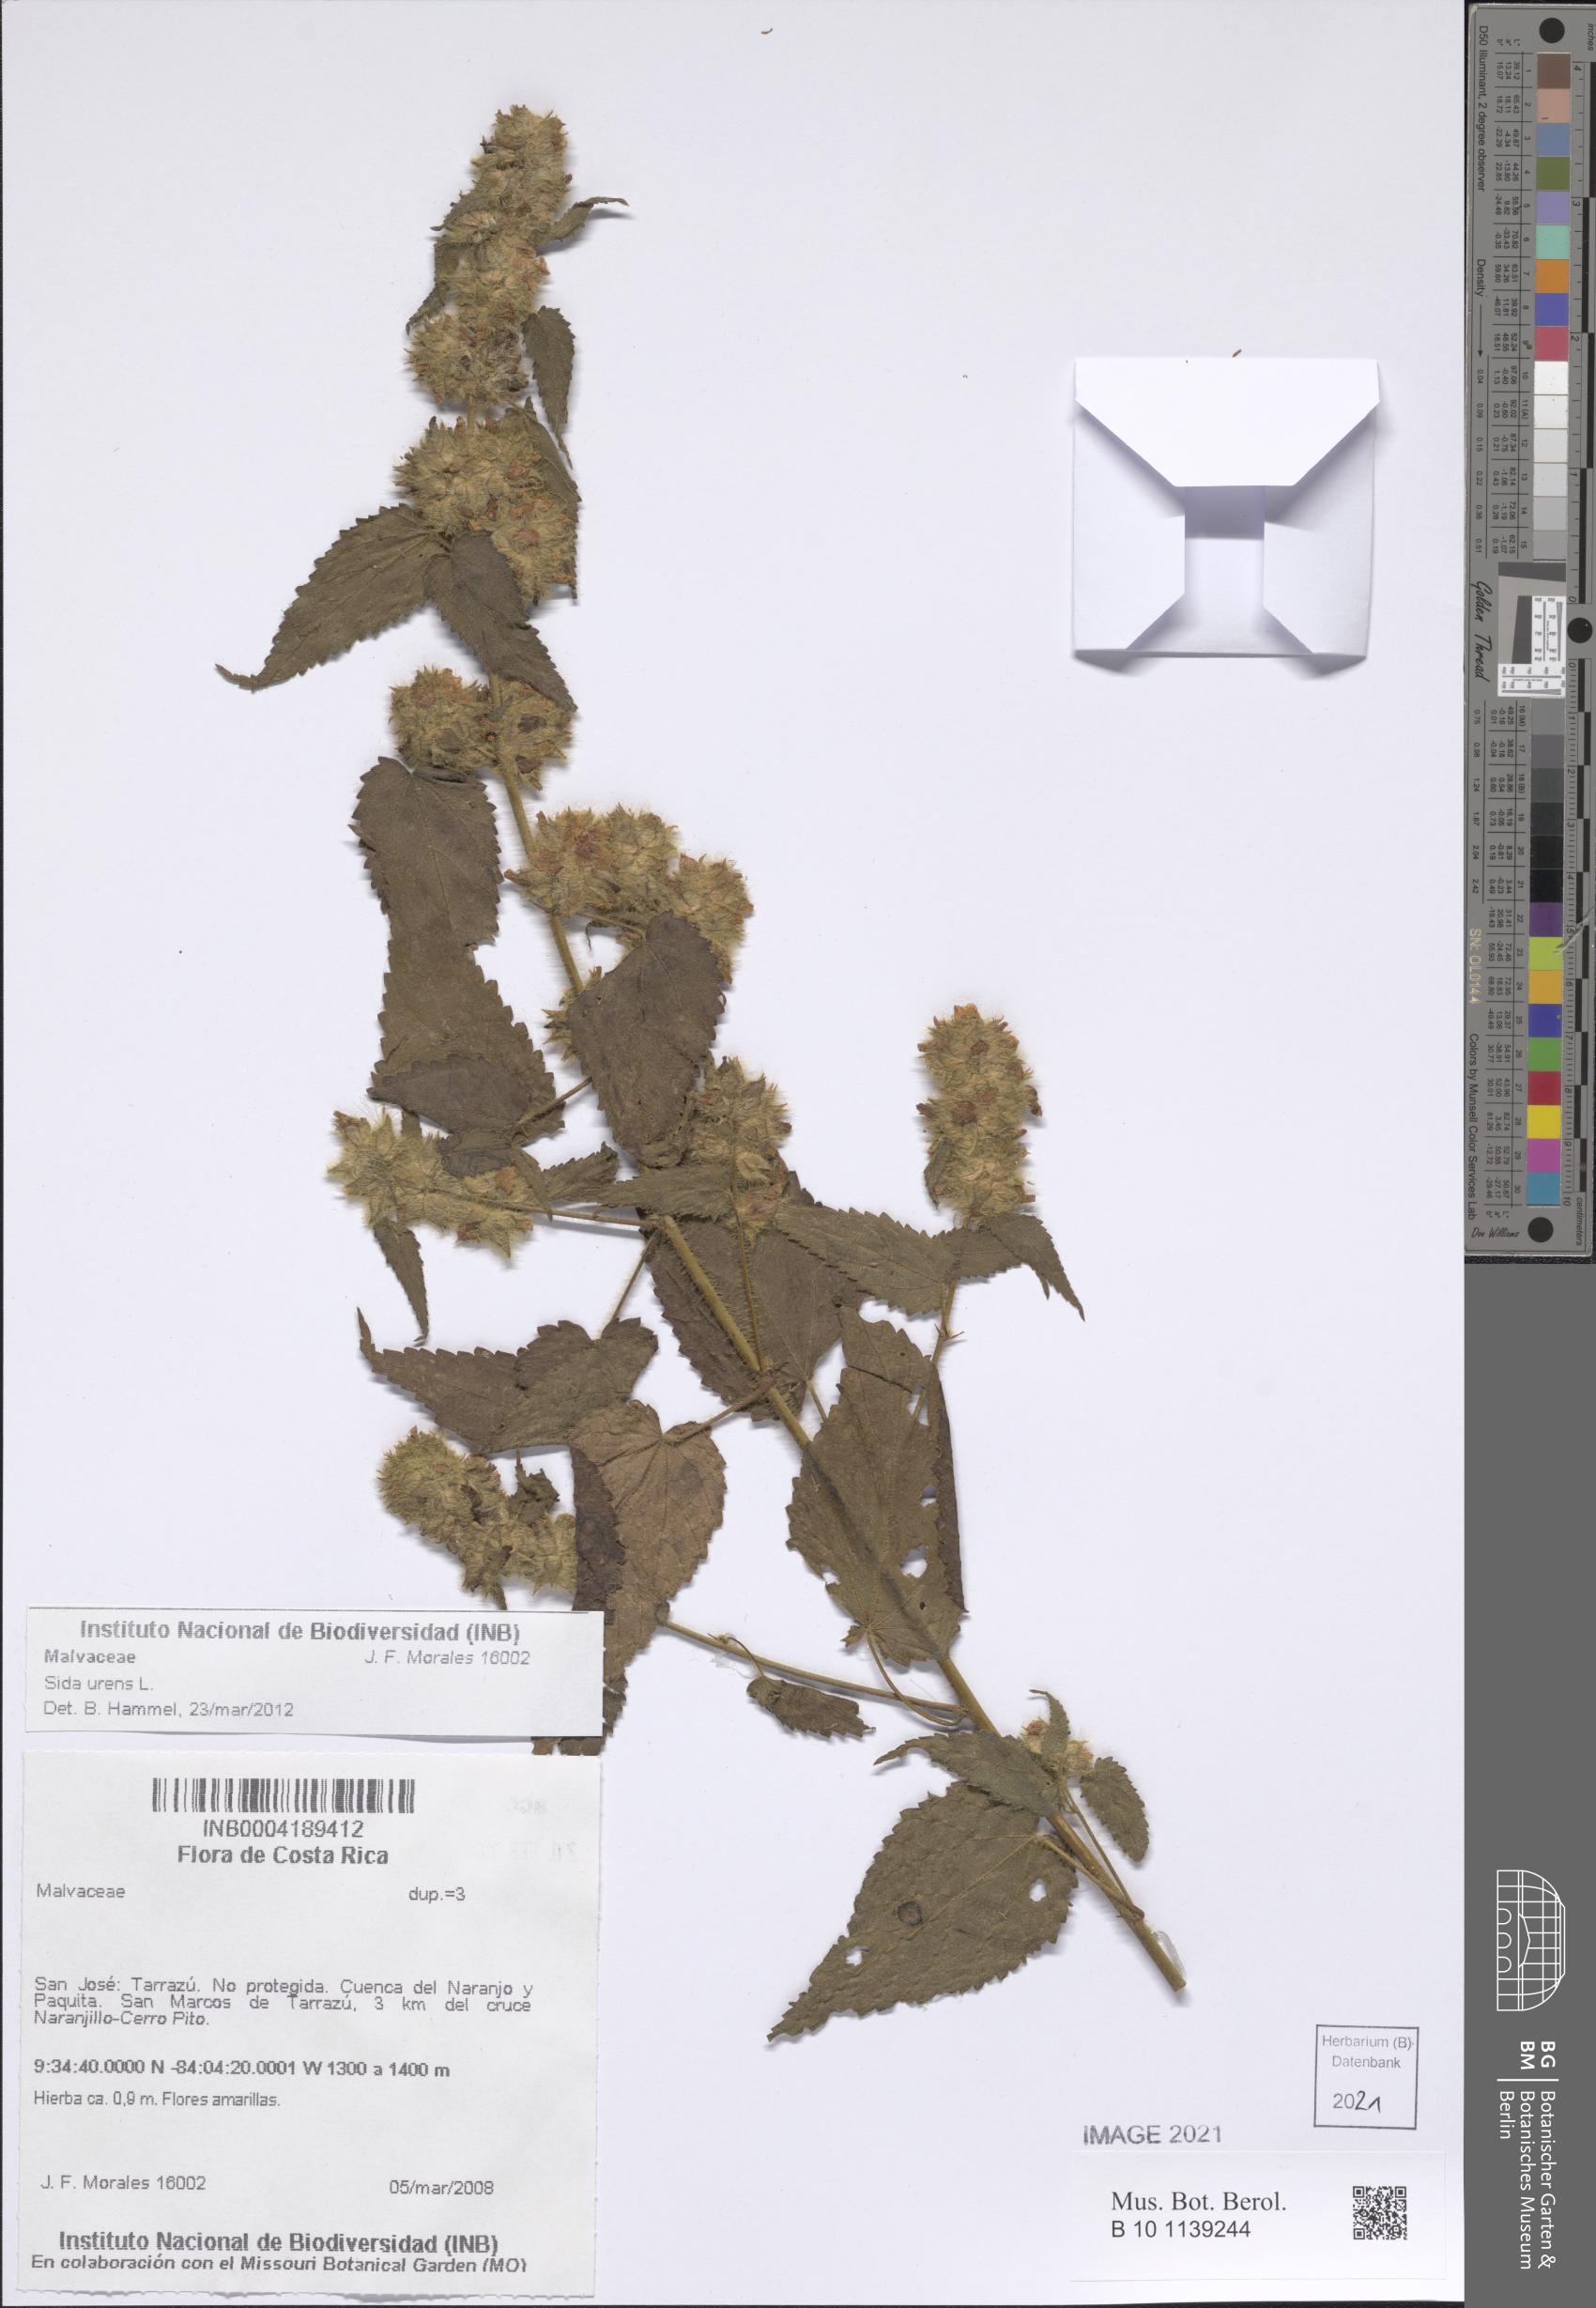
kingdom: Plantae
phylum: Tracheophyta
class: Magnoliopsida
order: Malvales
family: Malvaceae
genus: Sida
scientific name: Sida urens
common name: Tropical fanpetals
